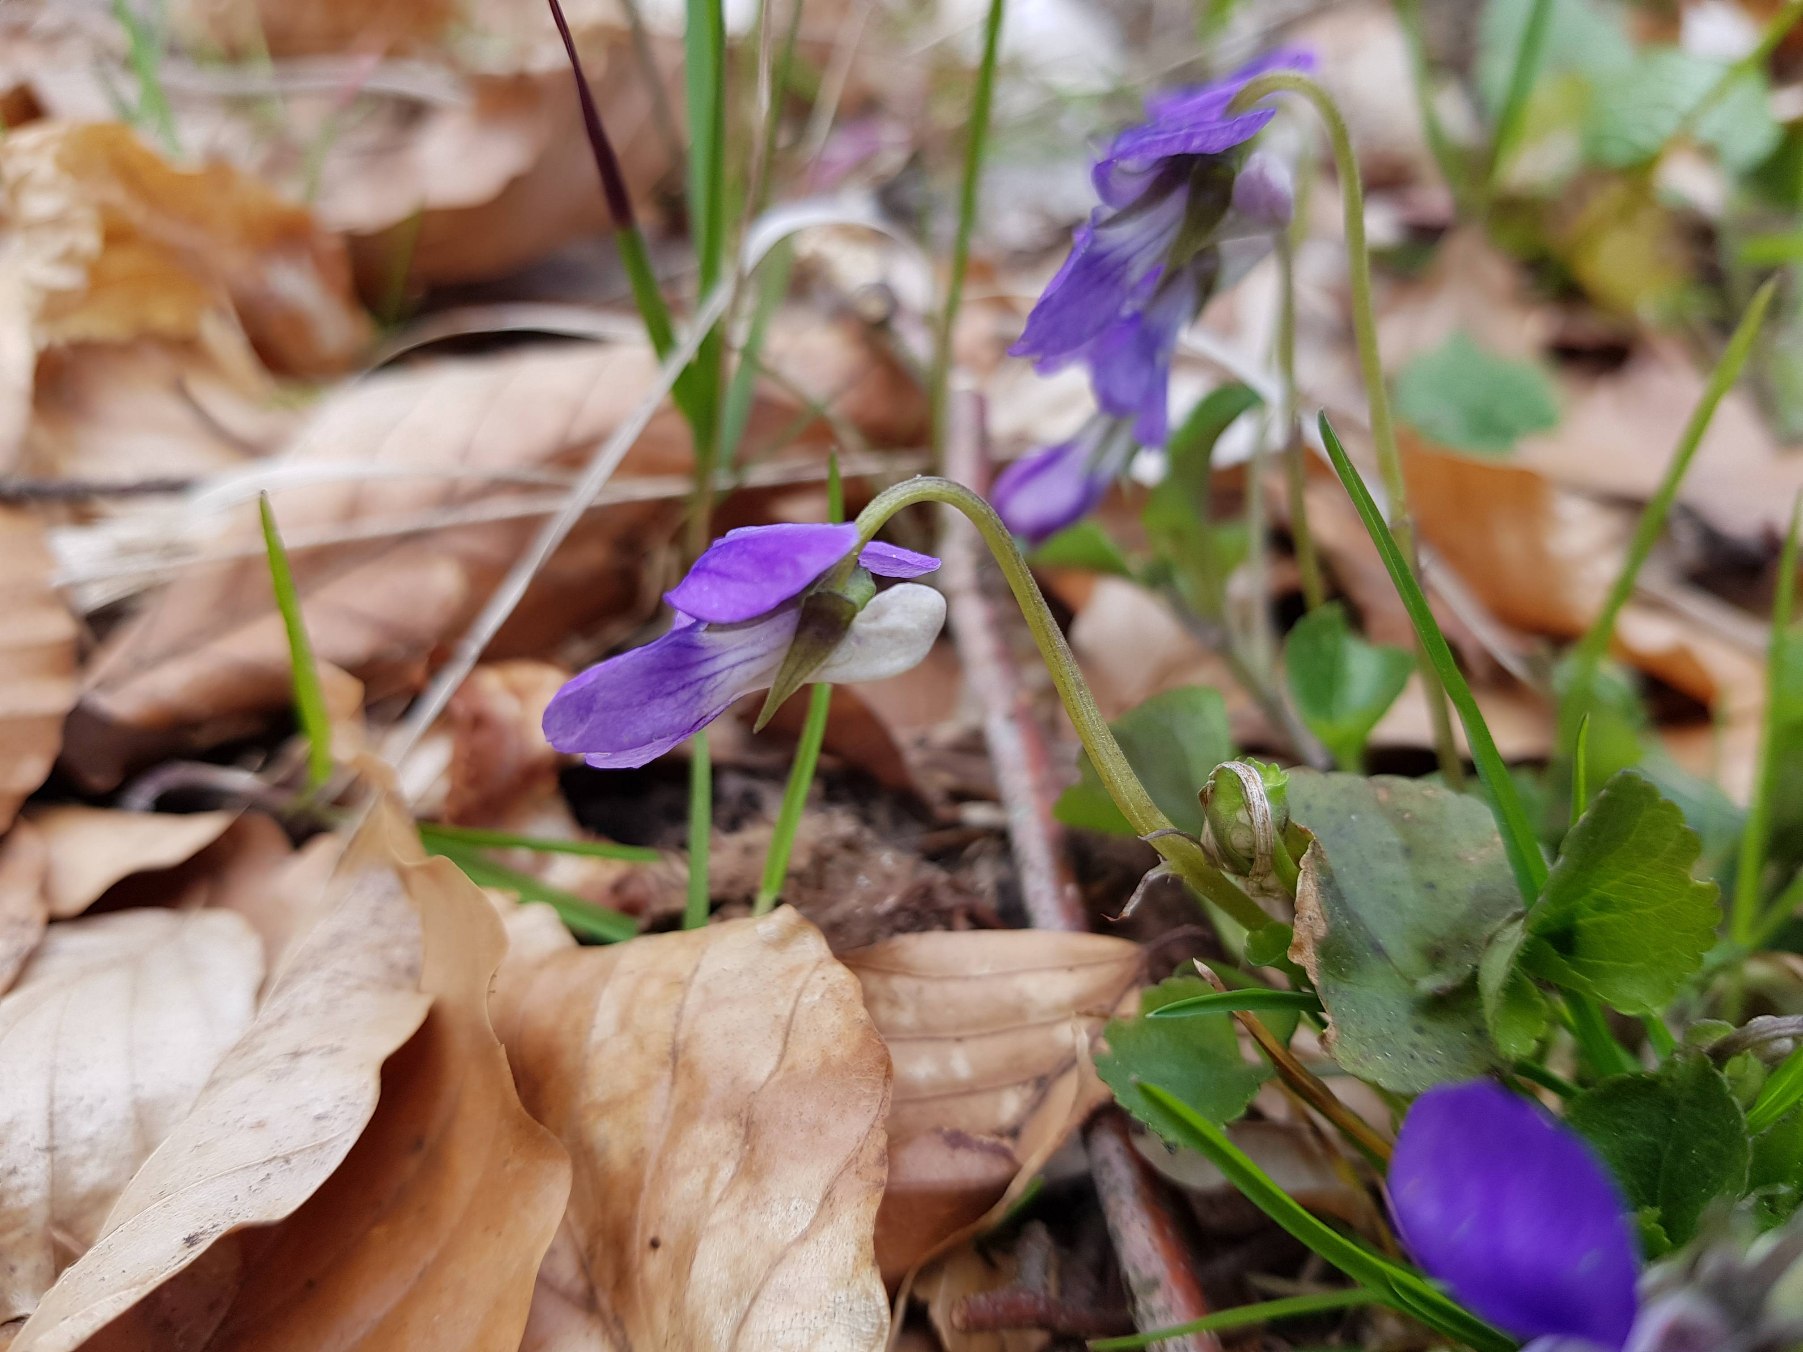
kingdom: Plantae
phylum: Tracheophyta
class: Magnoliopsida
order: Malpighiales
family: Violaceae
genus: Viola
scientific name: Viola riviniana
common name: Krat-viol
